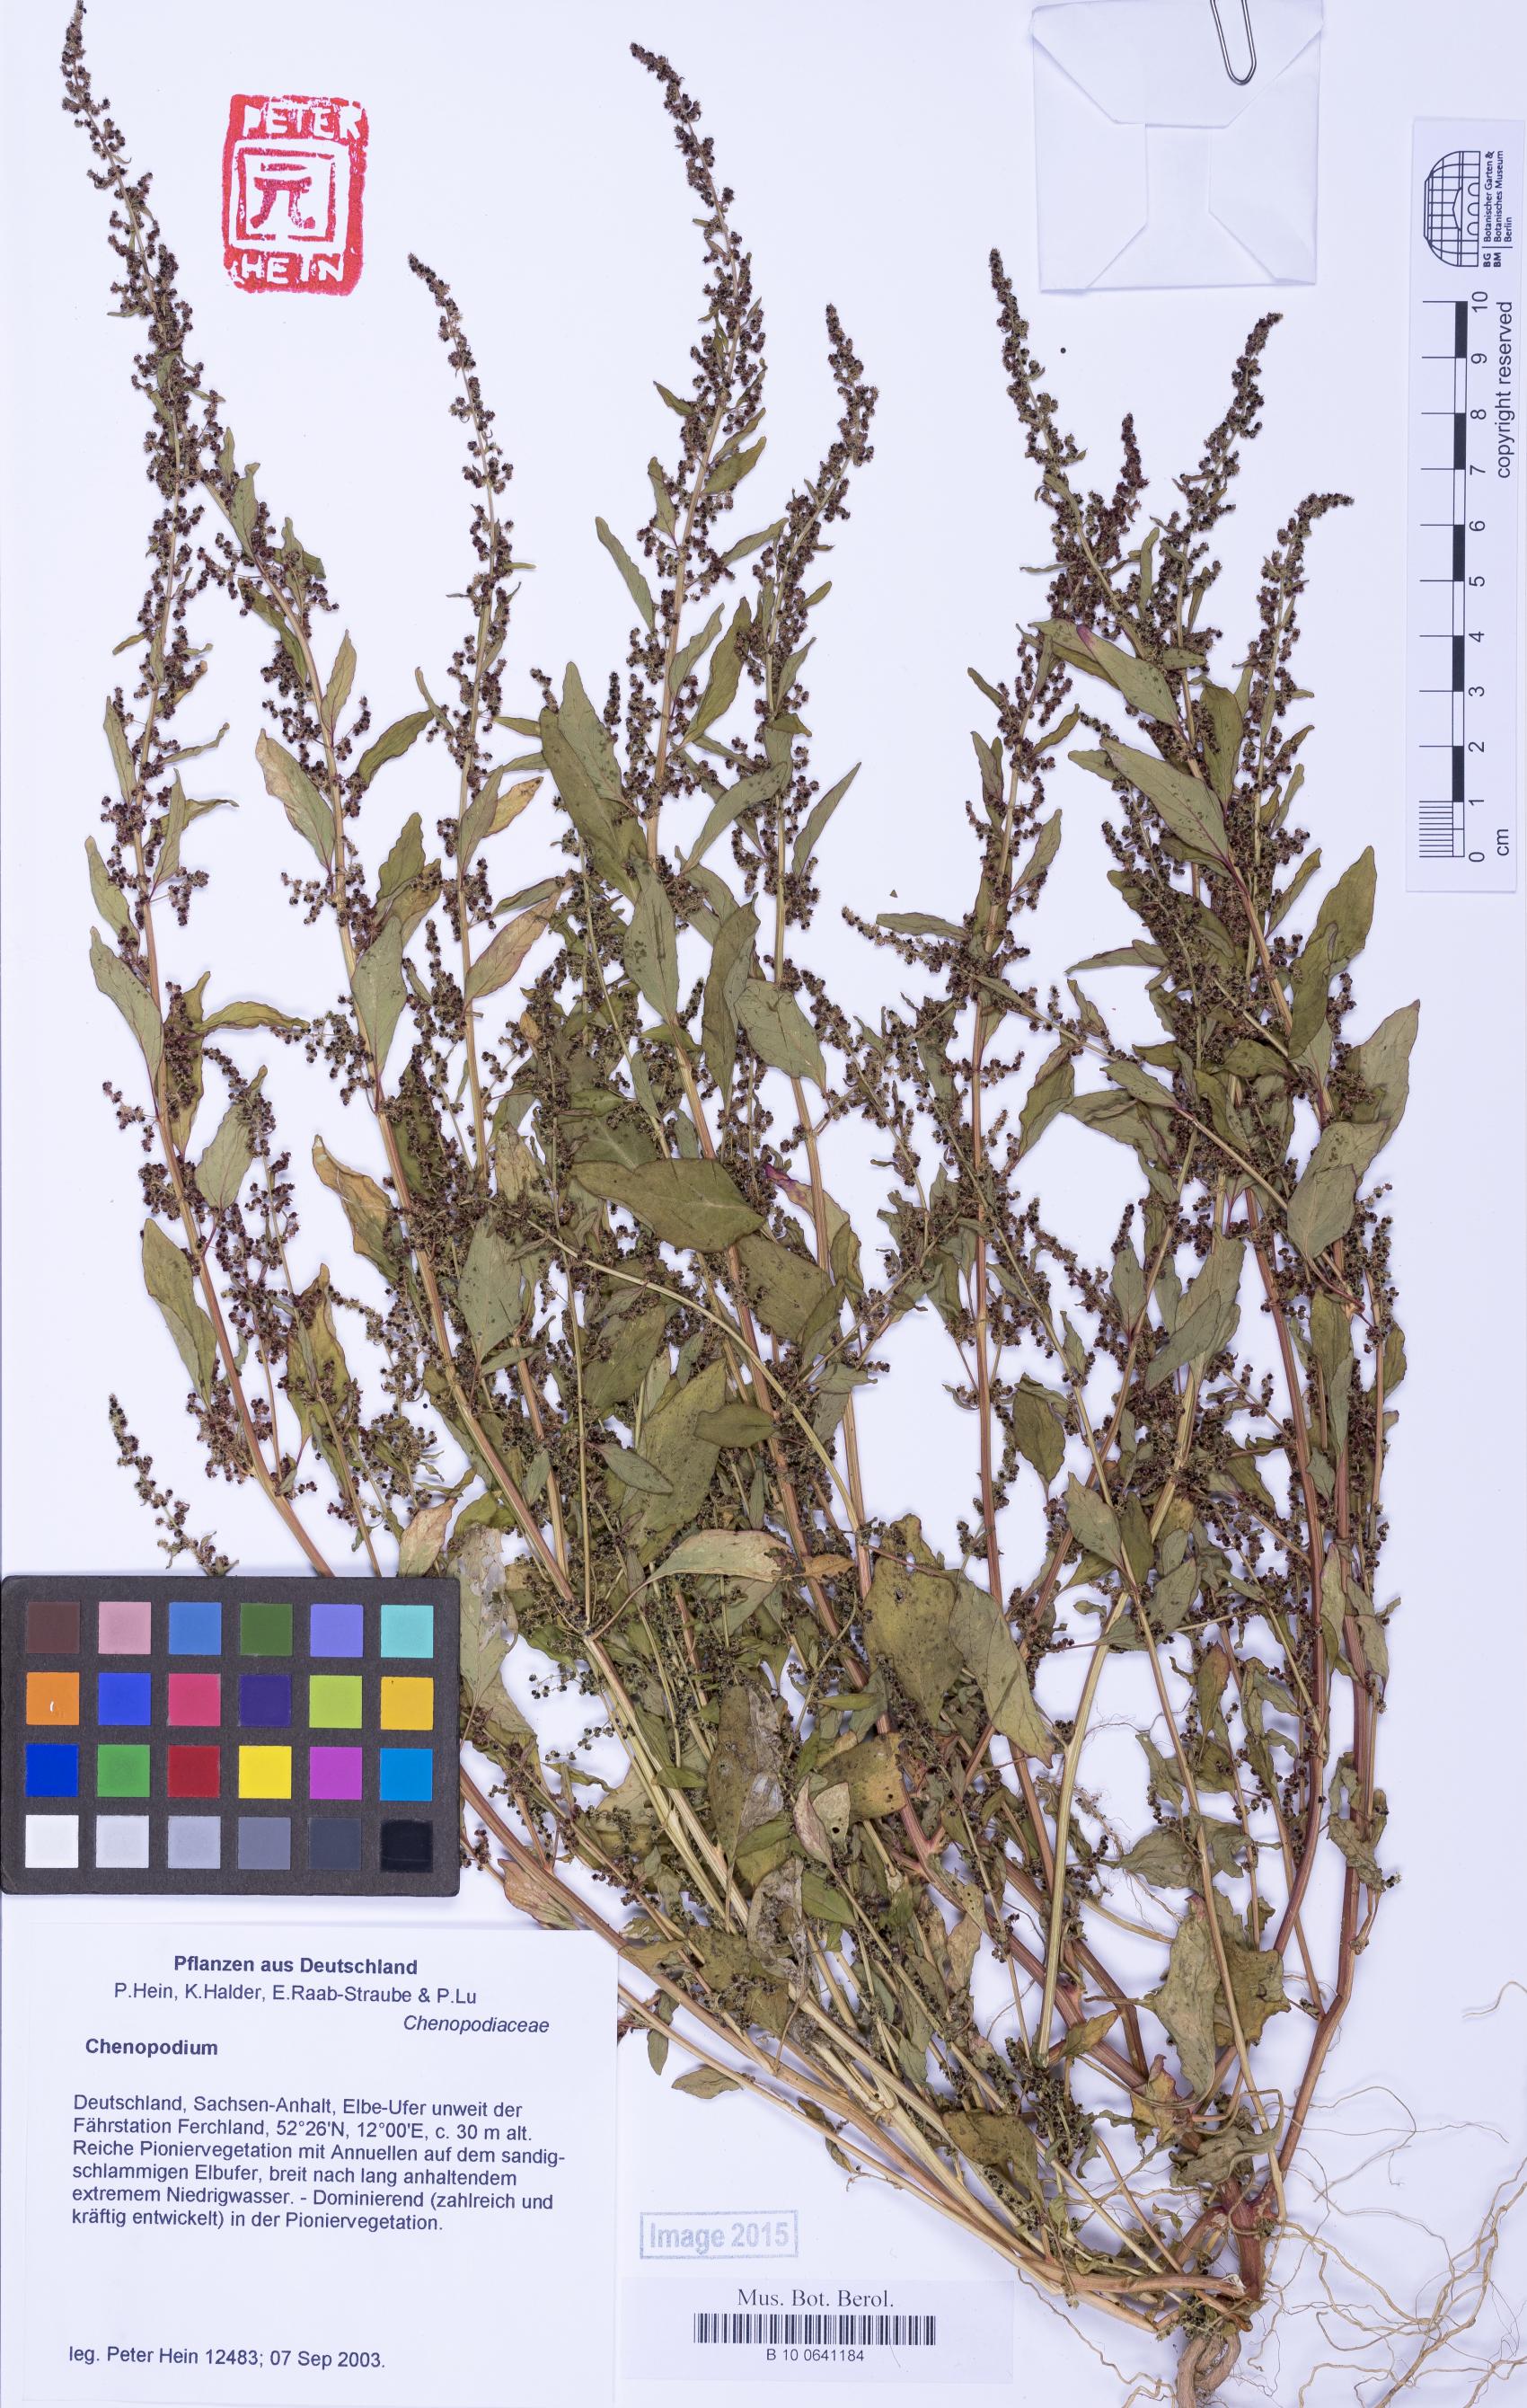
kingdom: Plantae
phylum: Tracheophyta
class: Magnoliopsida
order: Caryophyllales
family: Amaranthaceae
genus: Lipandra
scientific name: Lipandra polysperma
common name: Many-seed goosefoot
